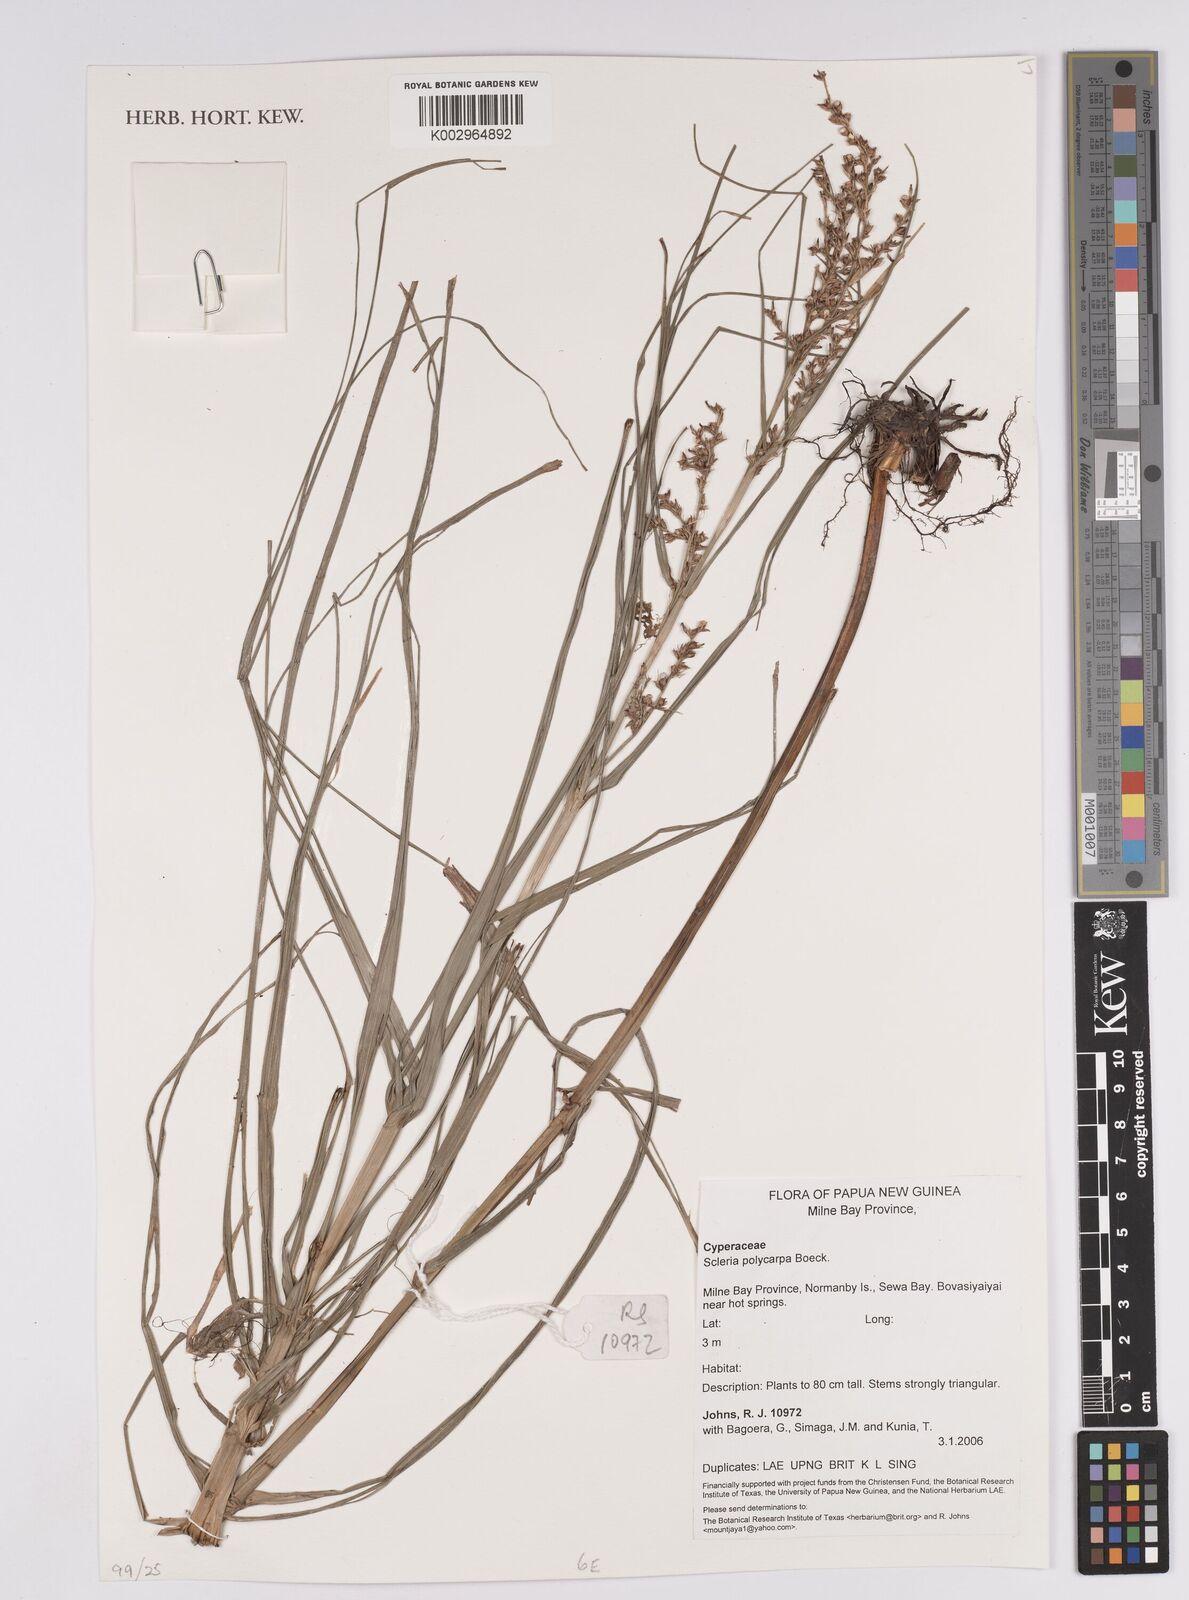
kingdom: Plantae
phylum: Tracheophyta
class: Liliopsida
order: Poales
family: Cyperaceae
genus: Scleria
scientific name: Scleria polycarpa
